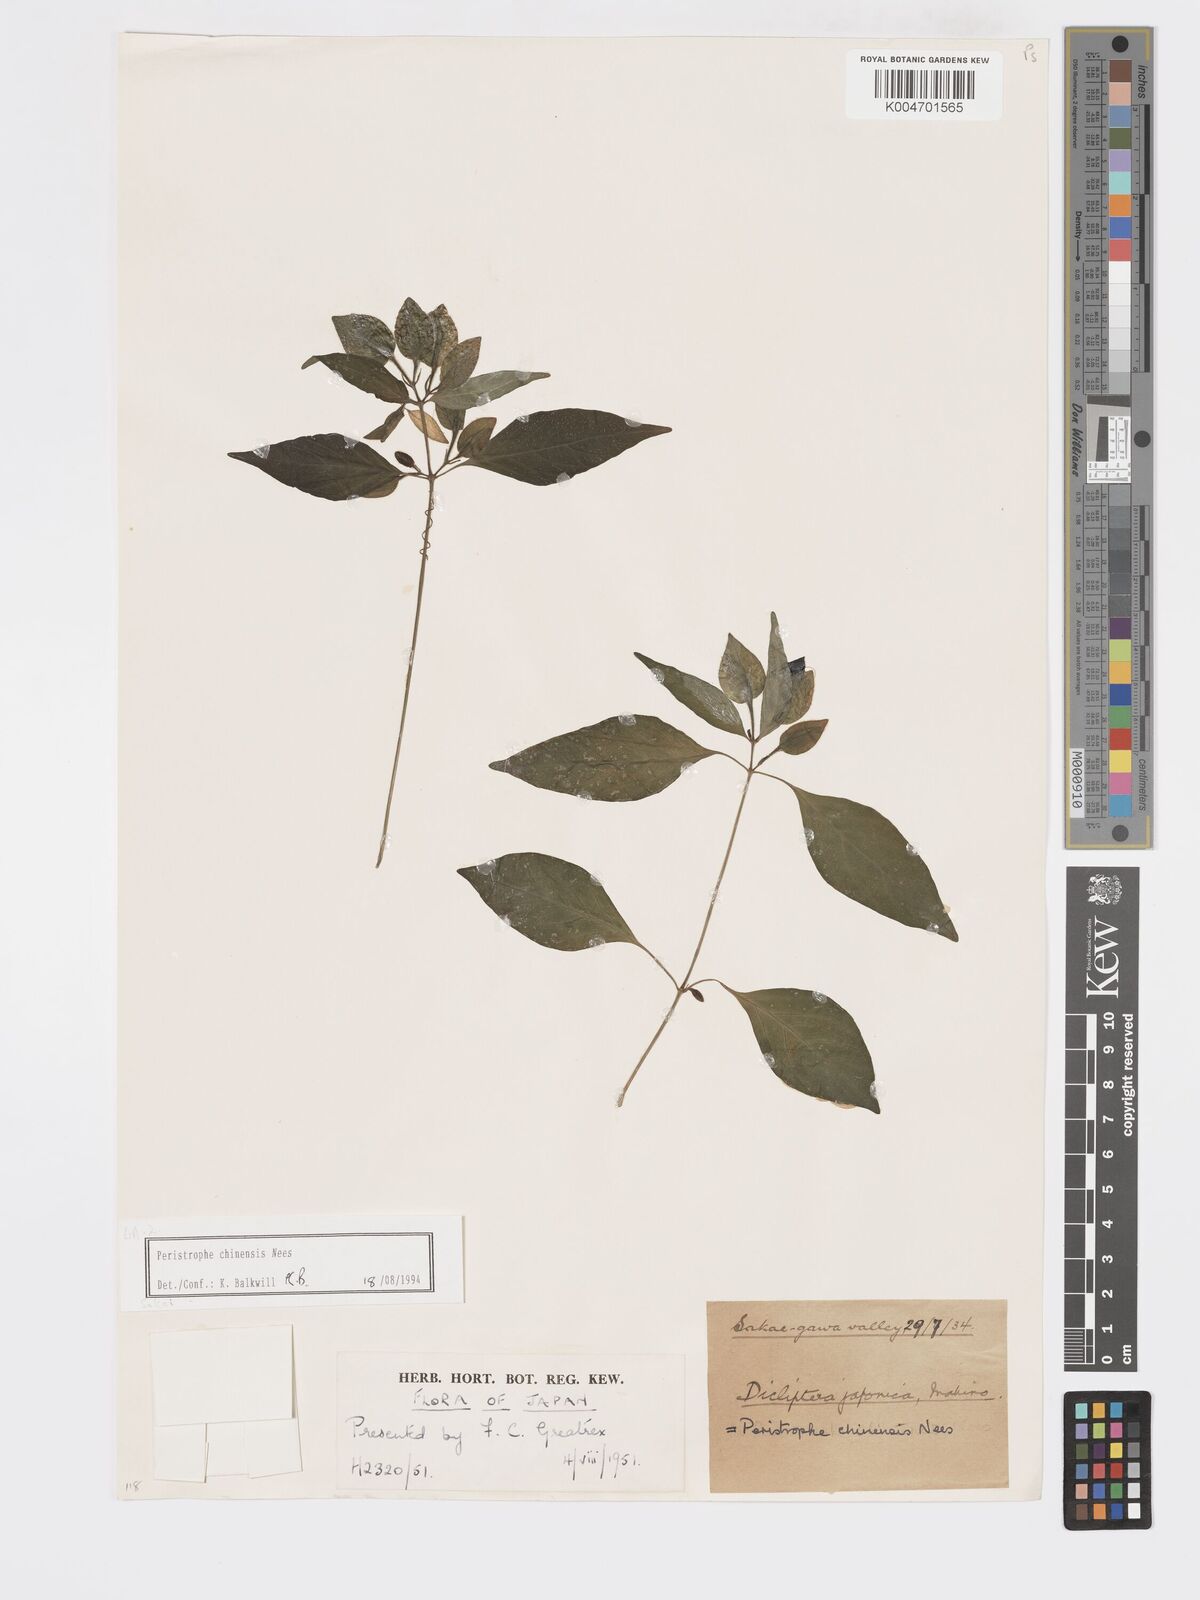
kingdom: Plantae
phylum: Tracheophyta
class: Magnoliopsida
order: Lamiales
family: Acanthaceae
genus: Dicliptera
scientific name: Dicliptera chinensis
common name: Chinese foldwing
